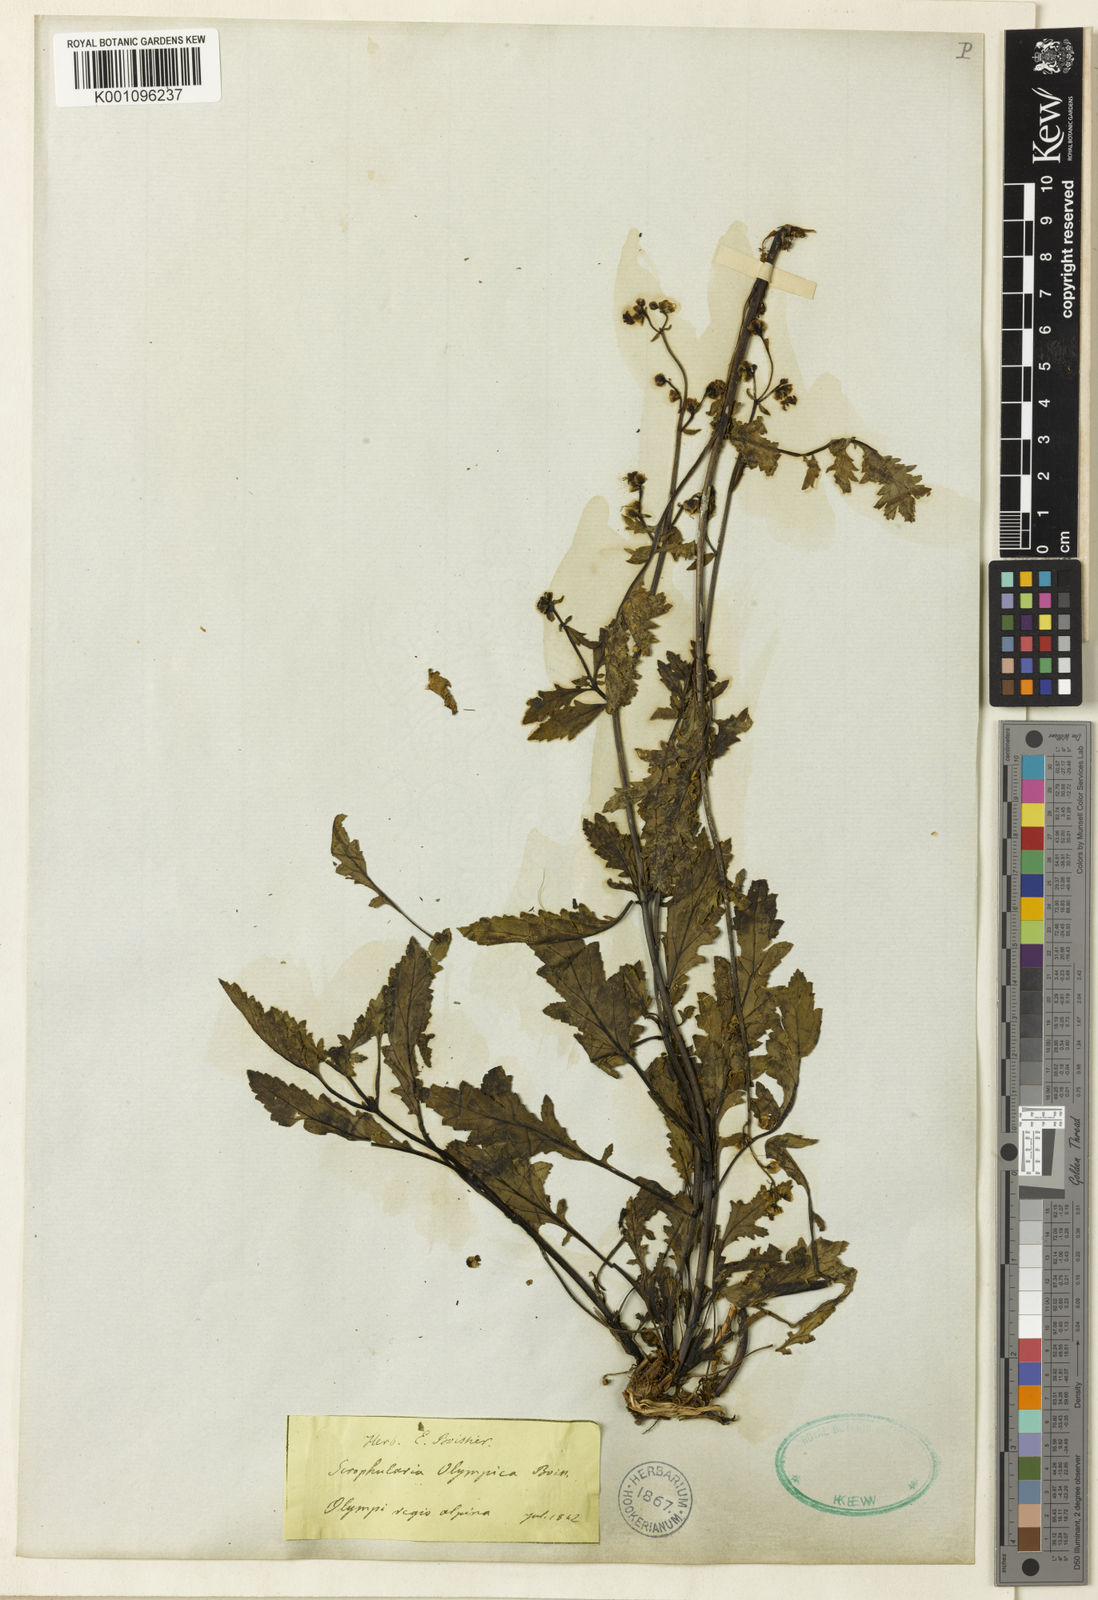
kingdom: Plantae
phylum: Tracheophyta
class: Magnoliopsida
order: Lamiales
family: Scrophulariaceae
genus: Scrophularia
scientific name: Scrophularia olympica
